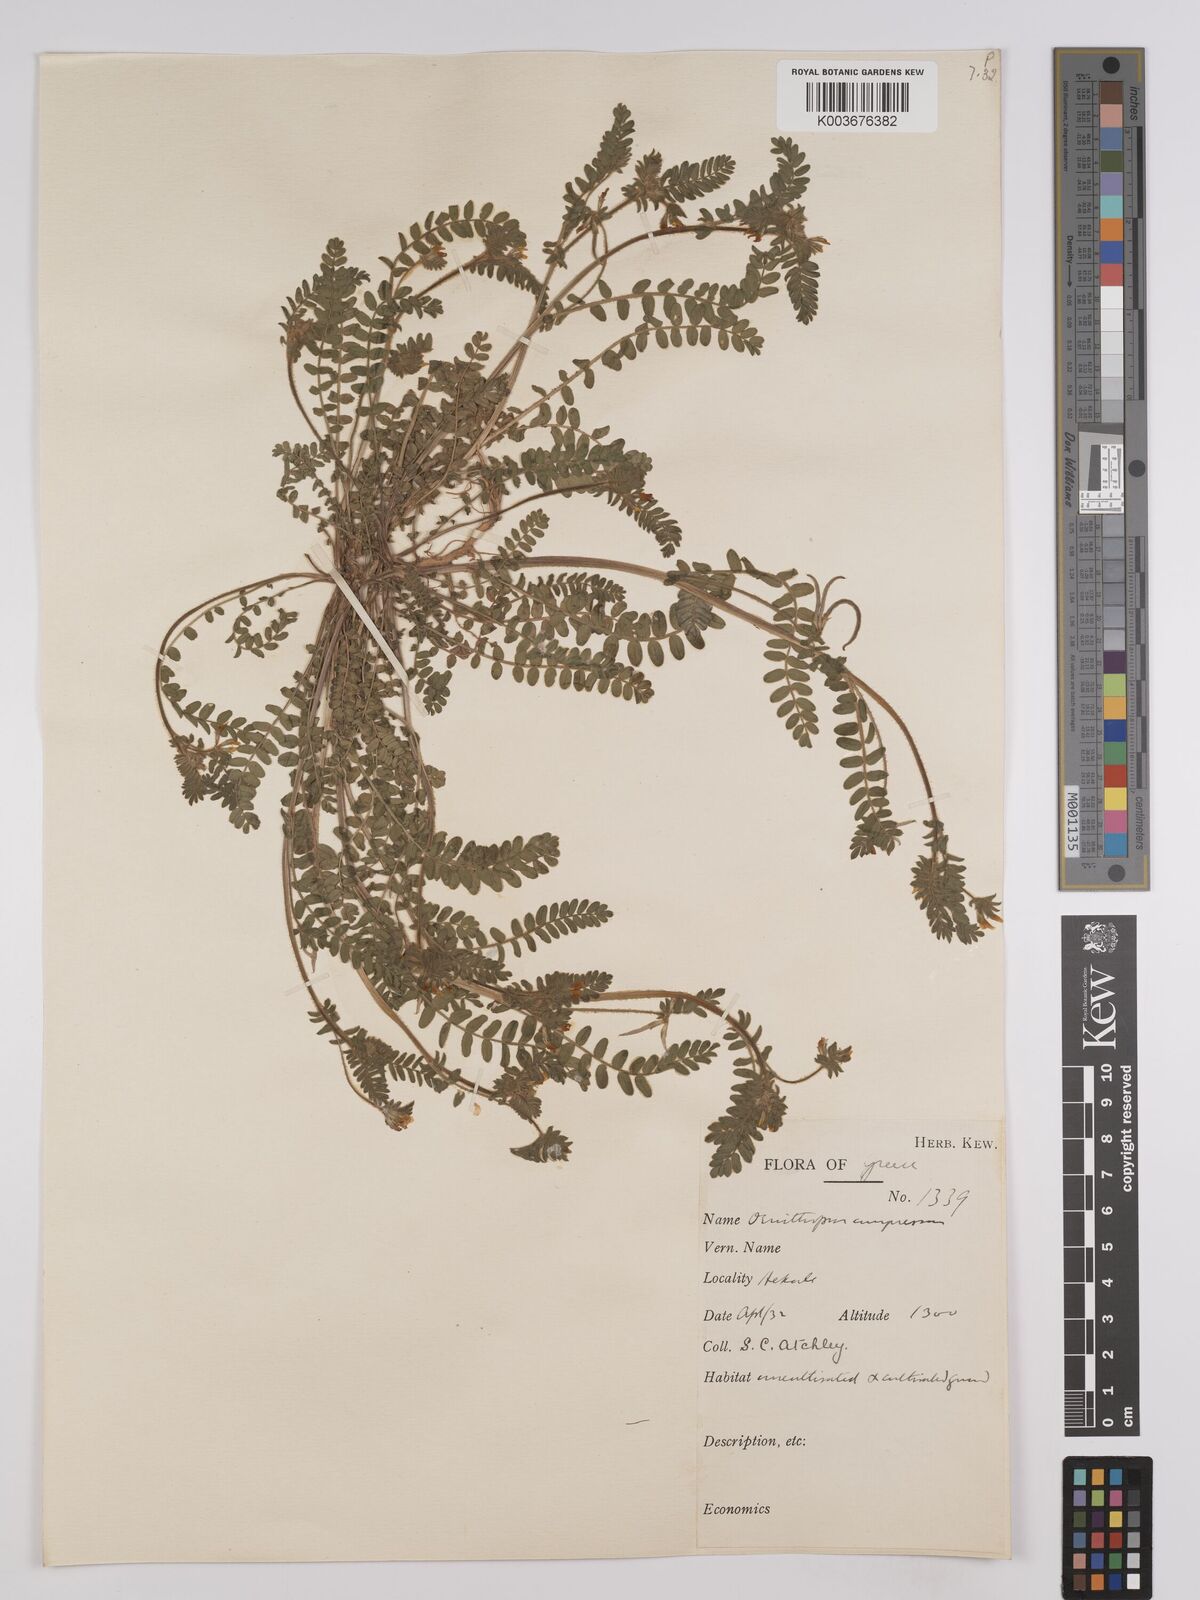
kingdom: Plantae
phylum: Tracheophyta
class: Magnoliopsida
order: Fabales
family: Fabaceae
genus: Ornithopus
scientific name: Ornithopus compressus
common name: Yellow serradella
